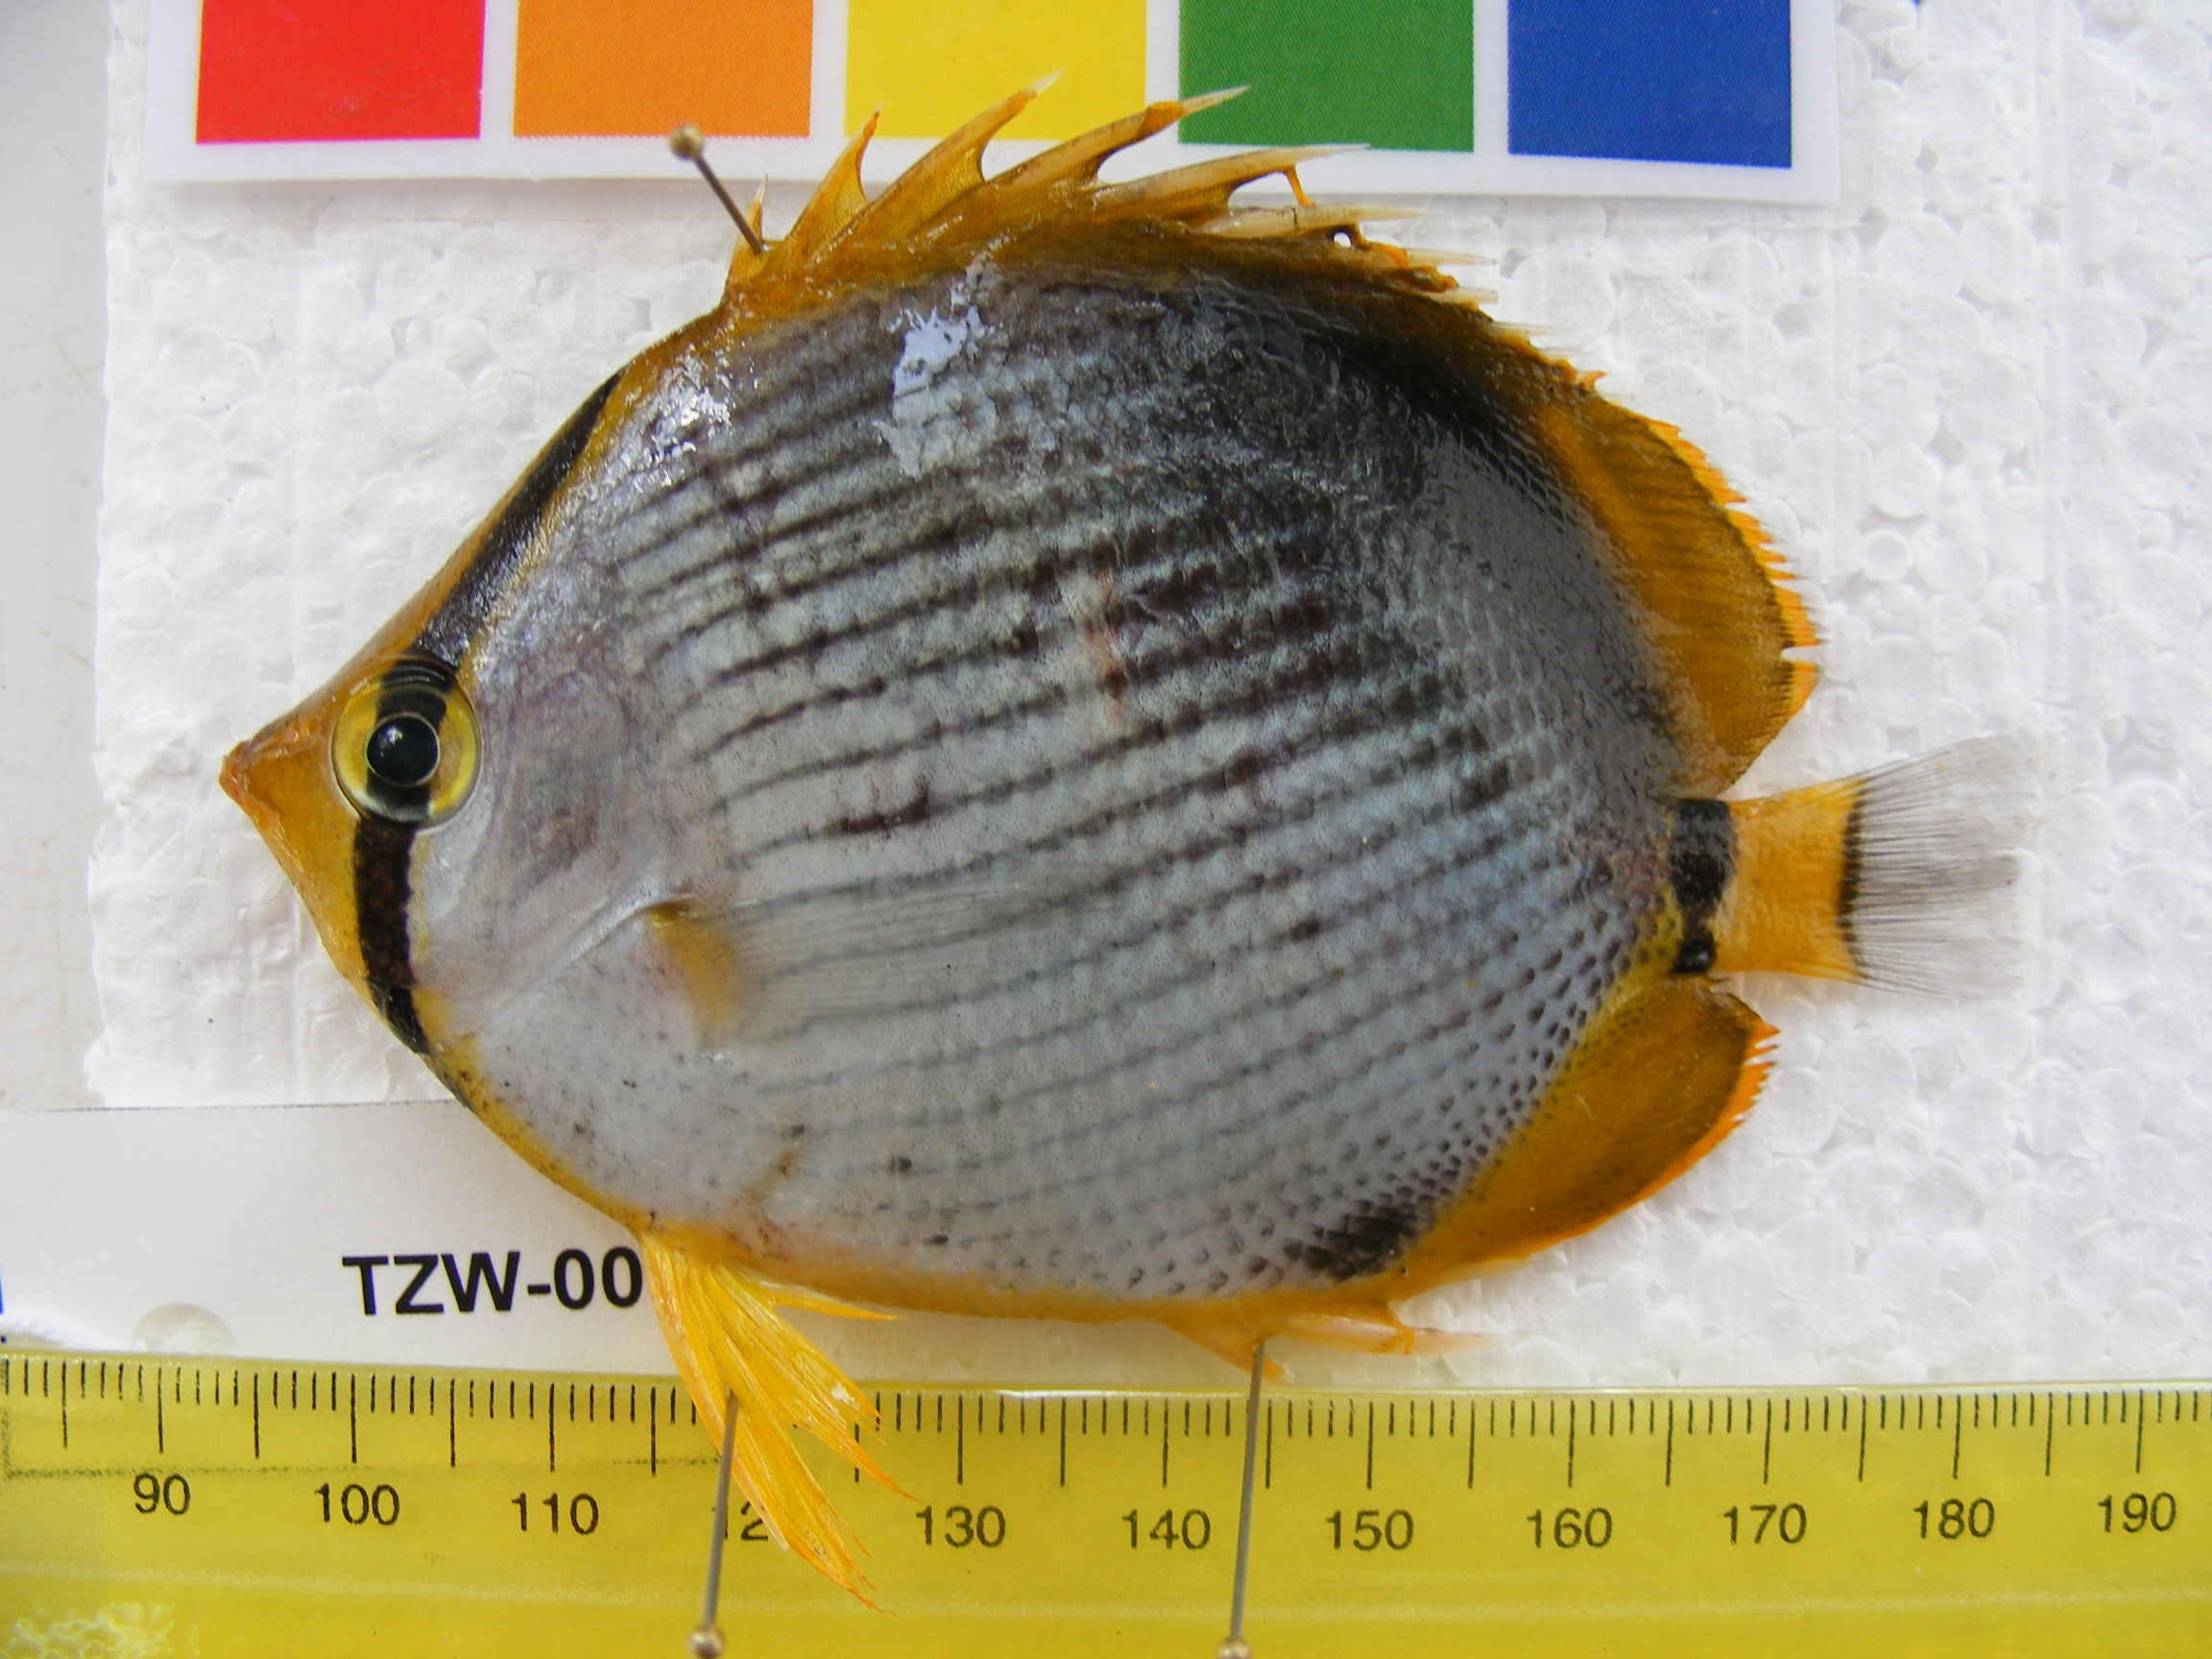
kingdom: Animalia
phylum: Chordata
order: Perciformes
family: Chaetodontidae
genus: Chaetodon
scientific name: Chaetodon melannotus
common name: Blackback butterflyfish
